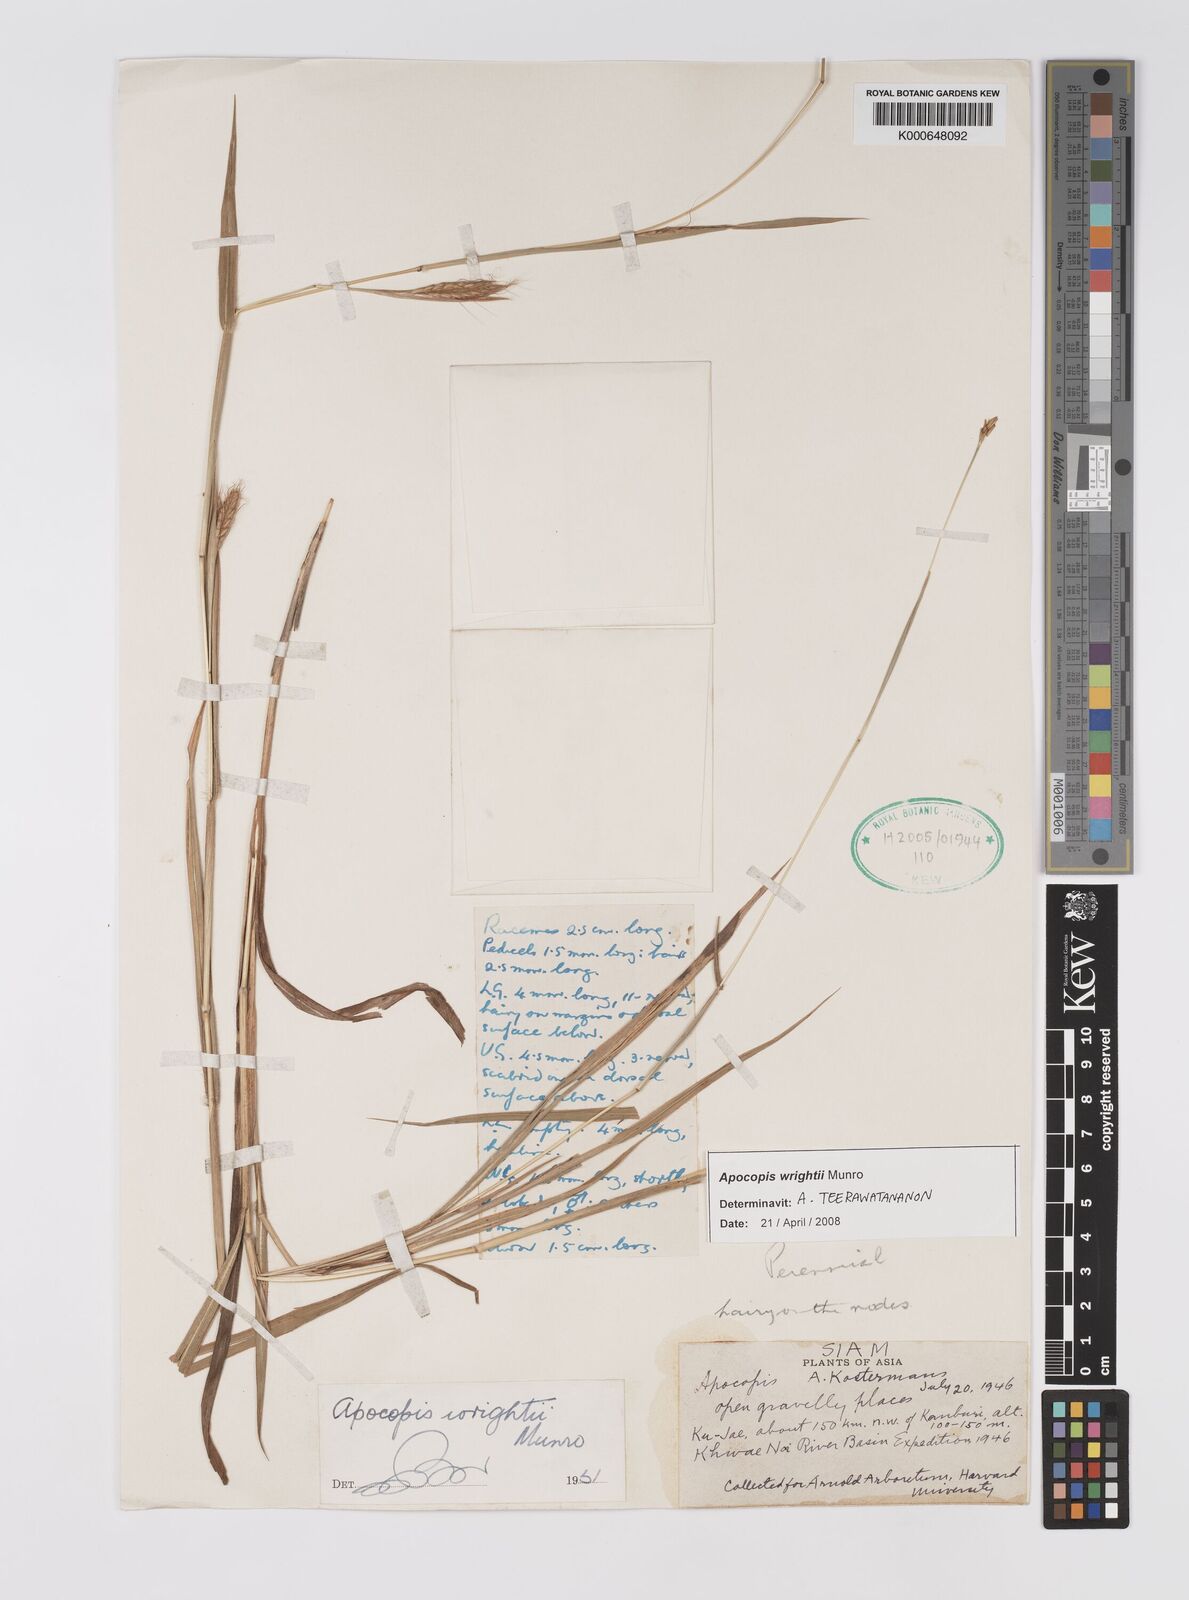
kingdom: Plantae
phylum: Tracheophyta
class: Liliopsida
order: Poales
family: Poaceae
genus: Apocopis
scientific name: Apocopis wrightii
